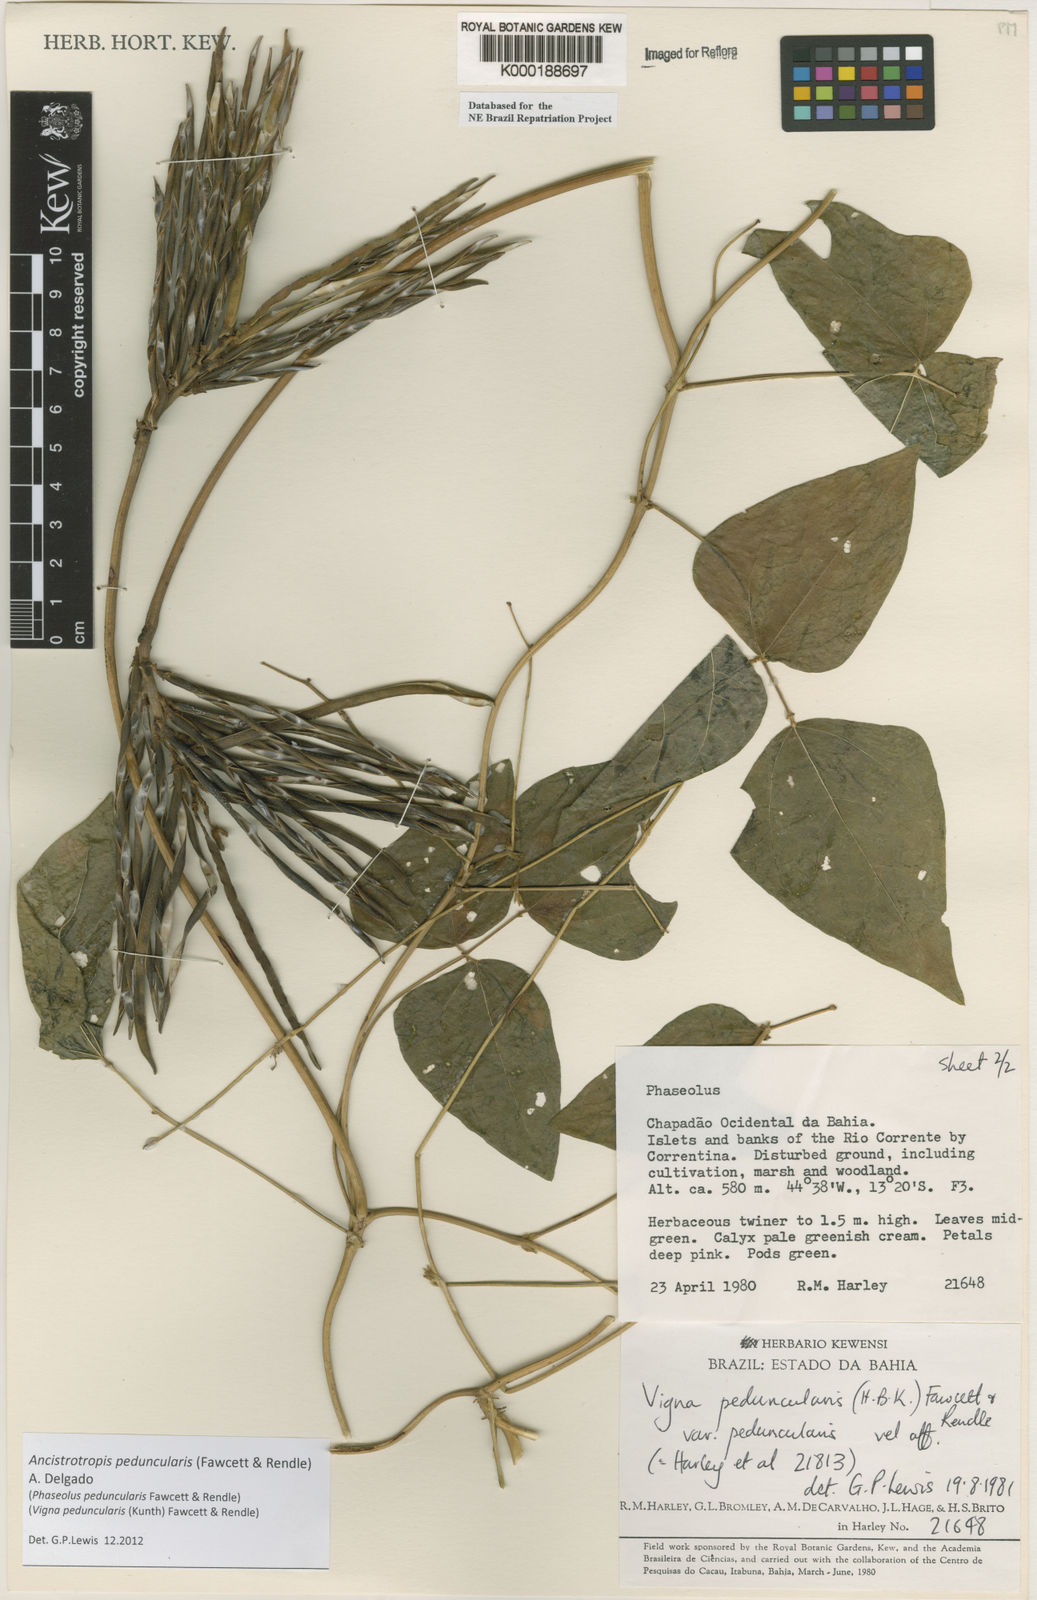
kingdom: Plantae
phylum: Tracheophyta
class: Magnoliopsida
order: Fabales
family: Fabaceae
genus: Ancistrotropis
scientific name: Ancistrotropis peduncularis
